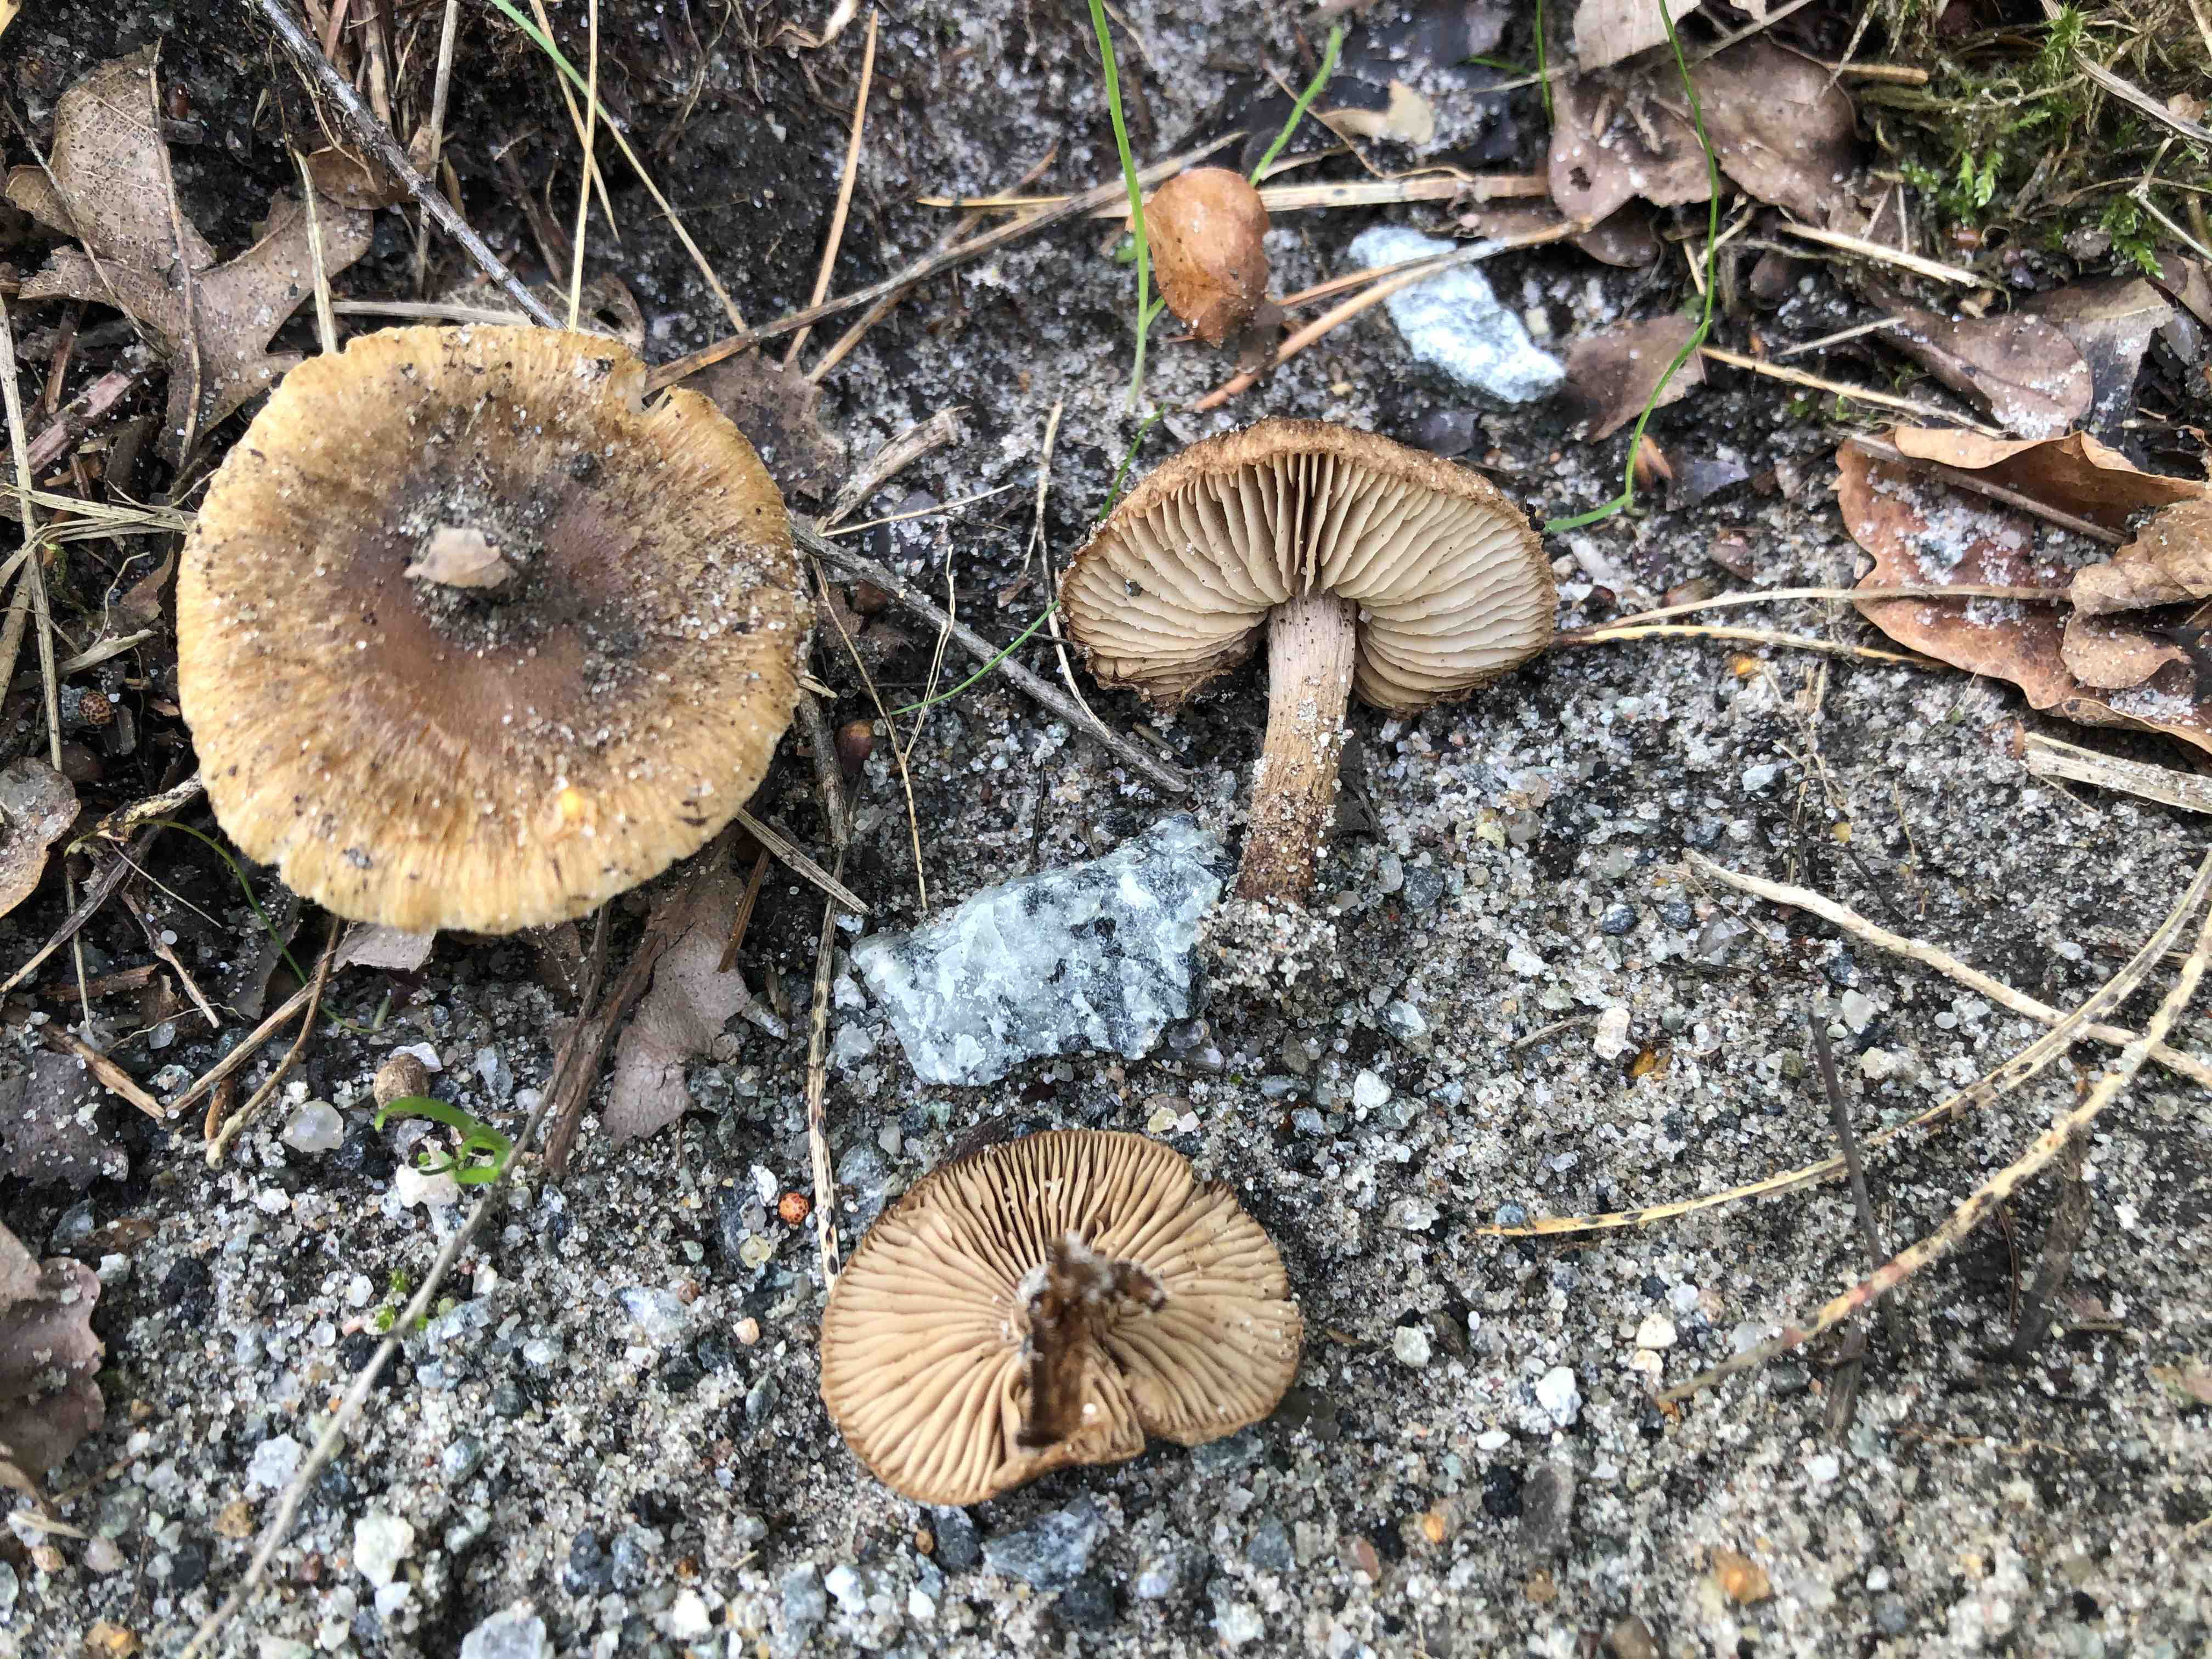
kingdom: Fungi
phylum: Basidiomycota
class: Agaricomycetes
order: Agaricales
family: Inocybaceae
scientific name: Inocybaceae
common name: trævlhatfamilien
